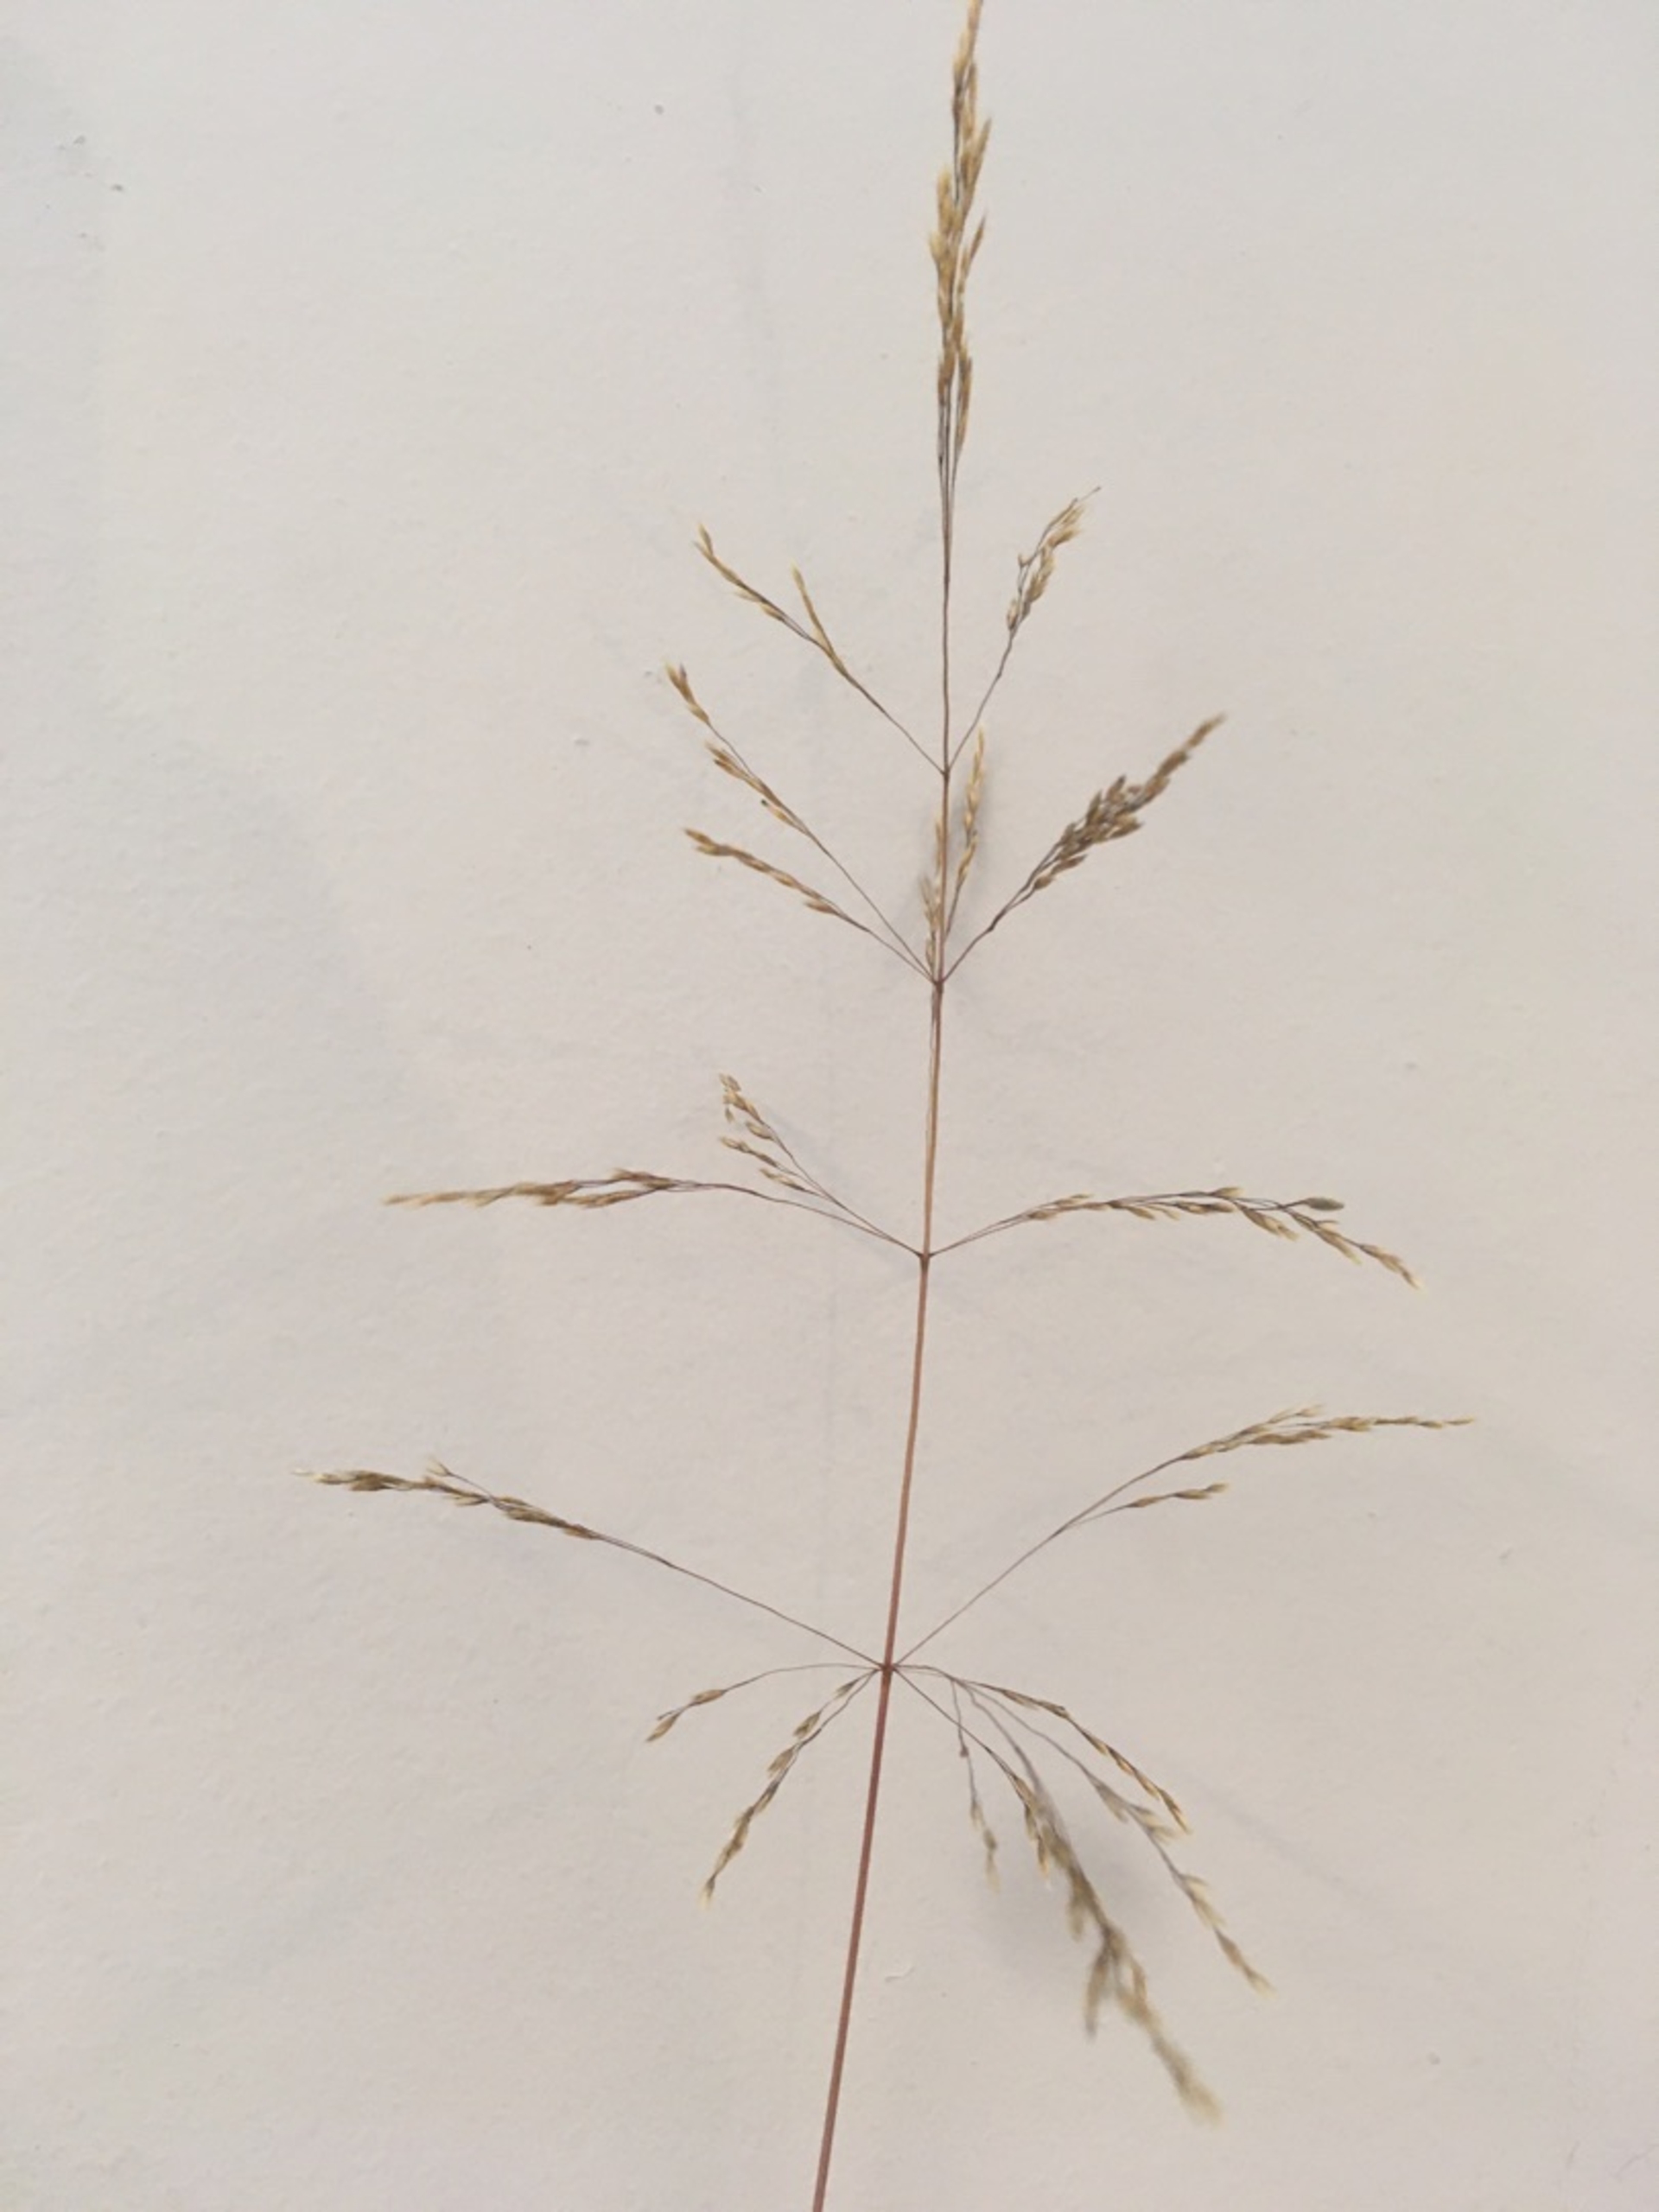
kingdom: Plantae
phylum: Tracheophyta
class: Liliopsida
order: Poales
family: Poaceae
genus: Deschampsia
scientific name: Deschampsia cespitosa
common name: Mose-bunke
